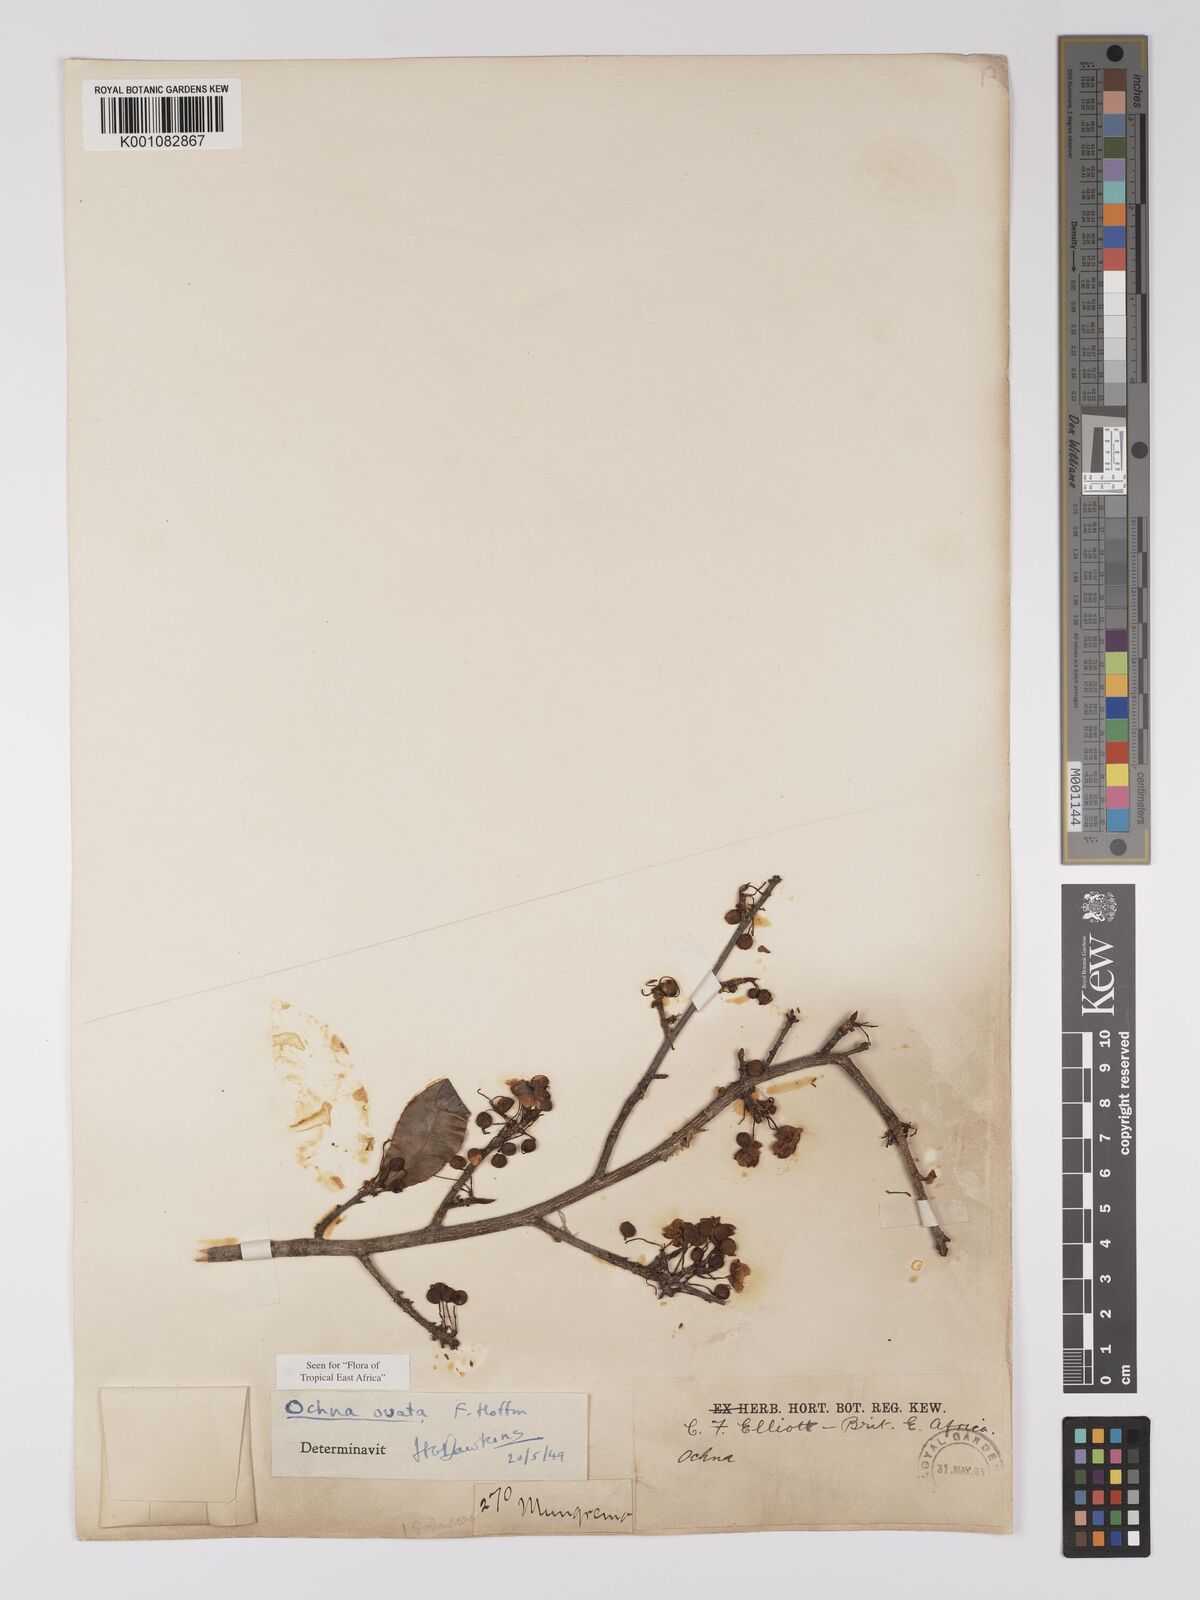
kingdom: Plantae
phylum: Tracheophyta
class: Magnoliopsida
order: Malpighiales
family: Ochnaceae
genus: Ochna
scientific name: Ochna ovata
